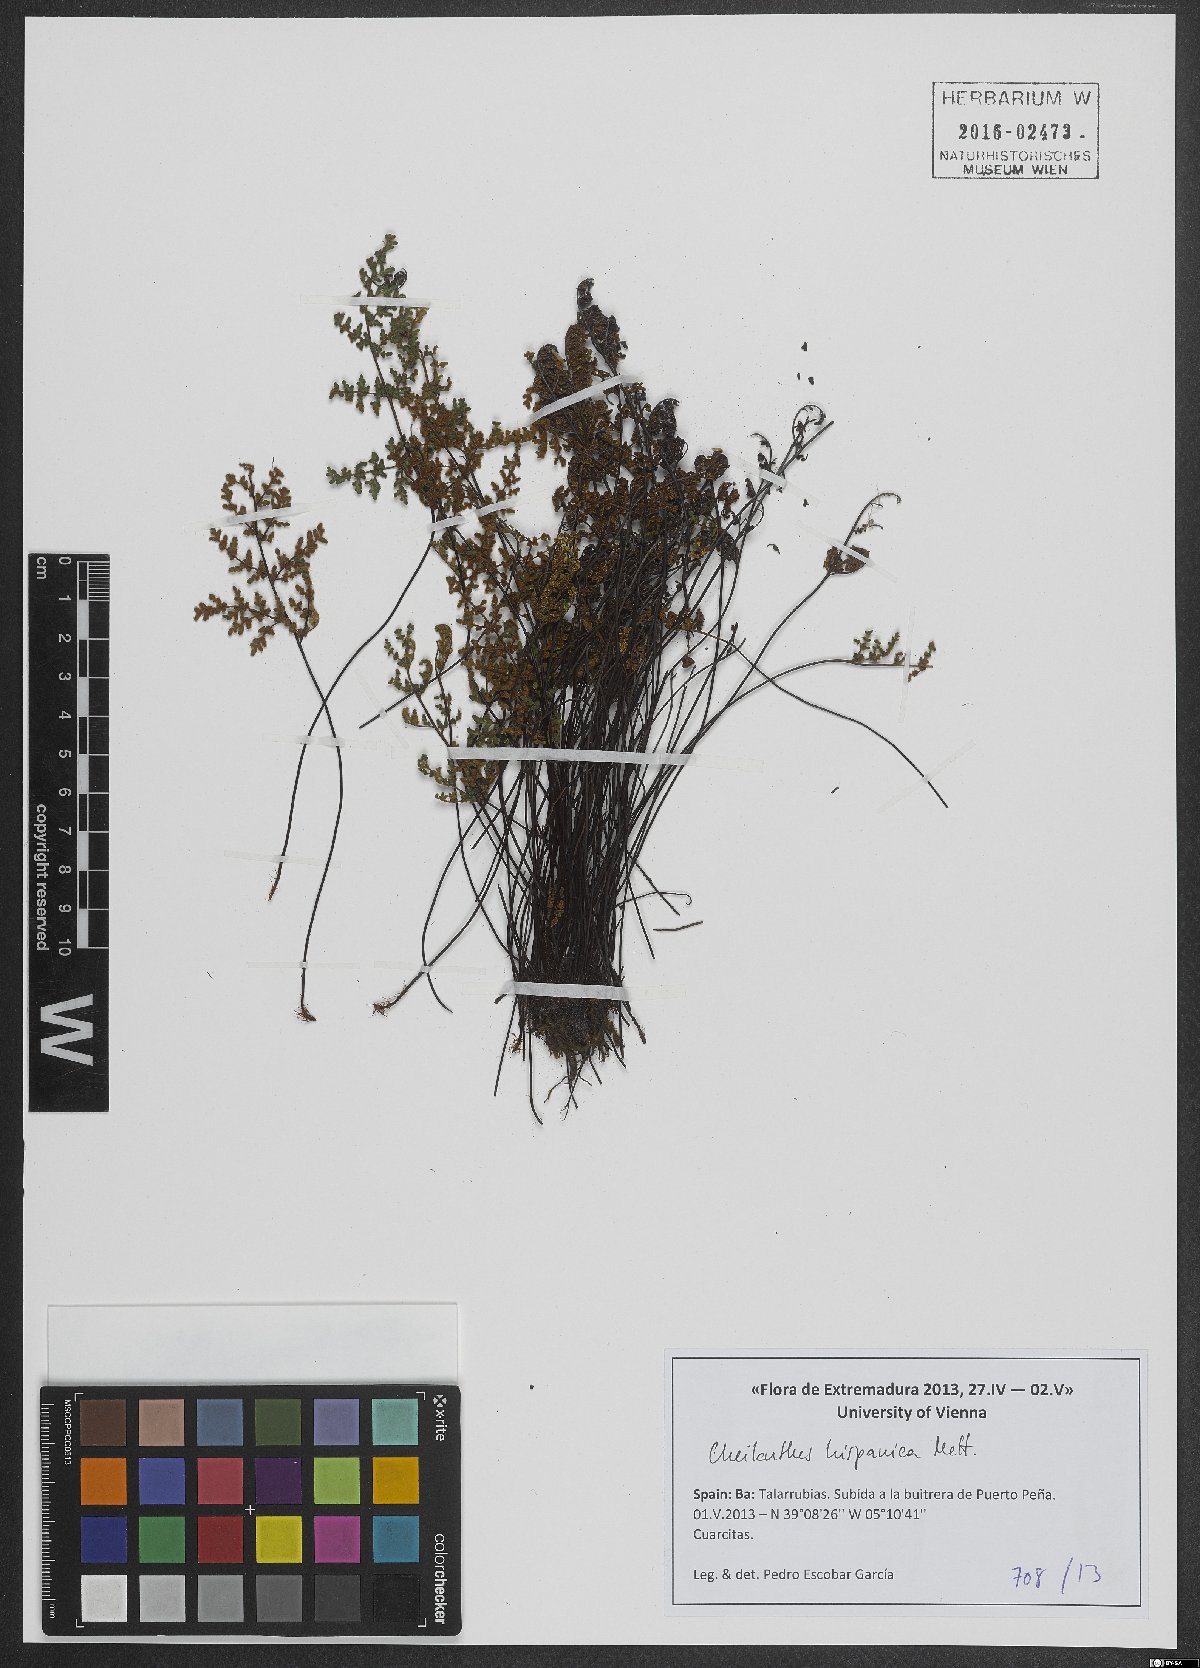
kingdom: Plantae
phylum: Tracheophyta
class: Polypodiopsida
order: Polypodiales
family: Pteridaceae
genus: Oeosporangium
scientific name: Oeosporangium hispanicum
